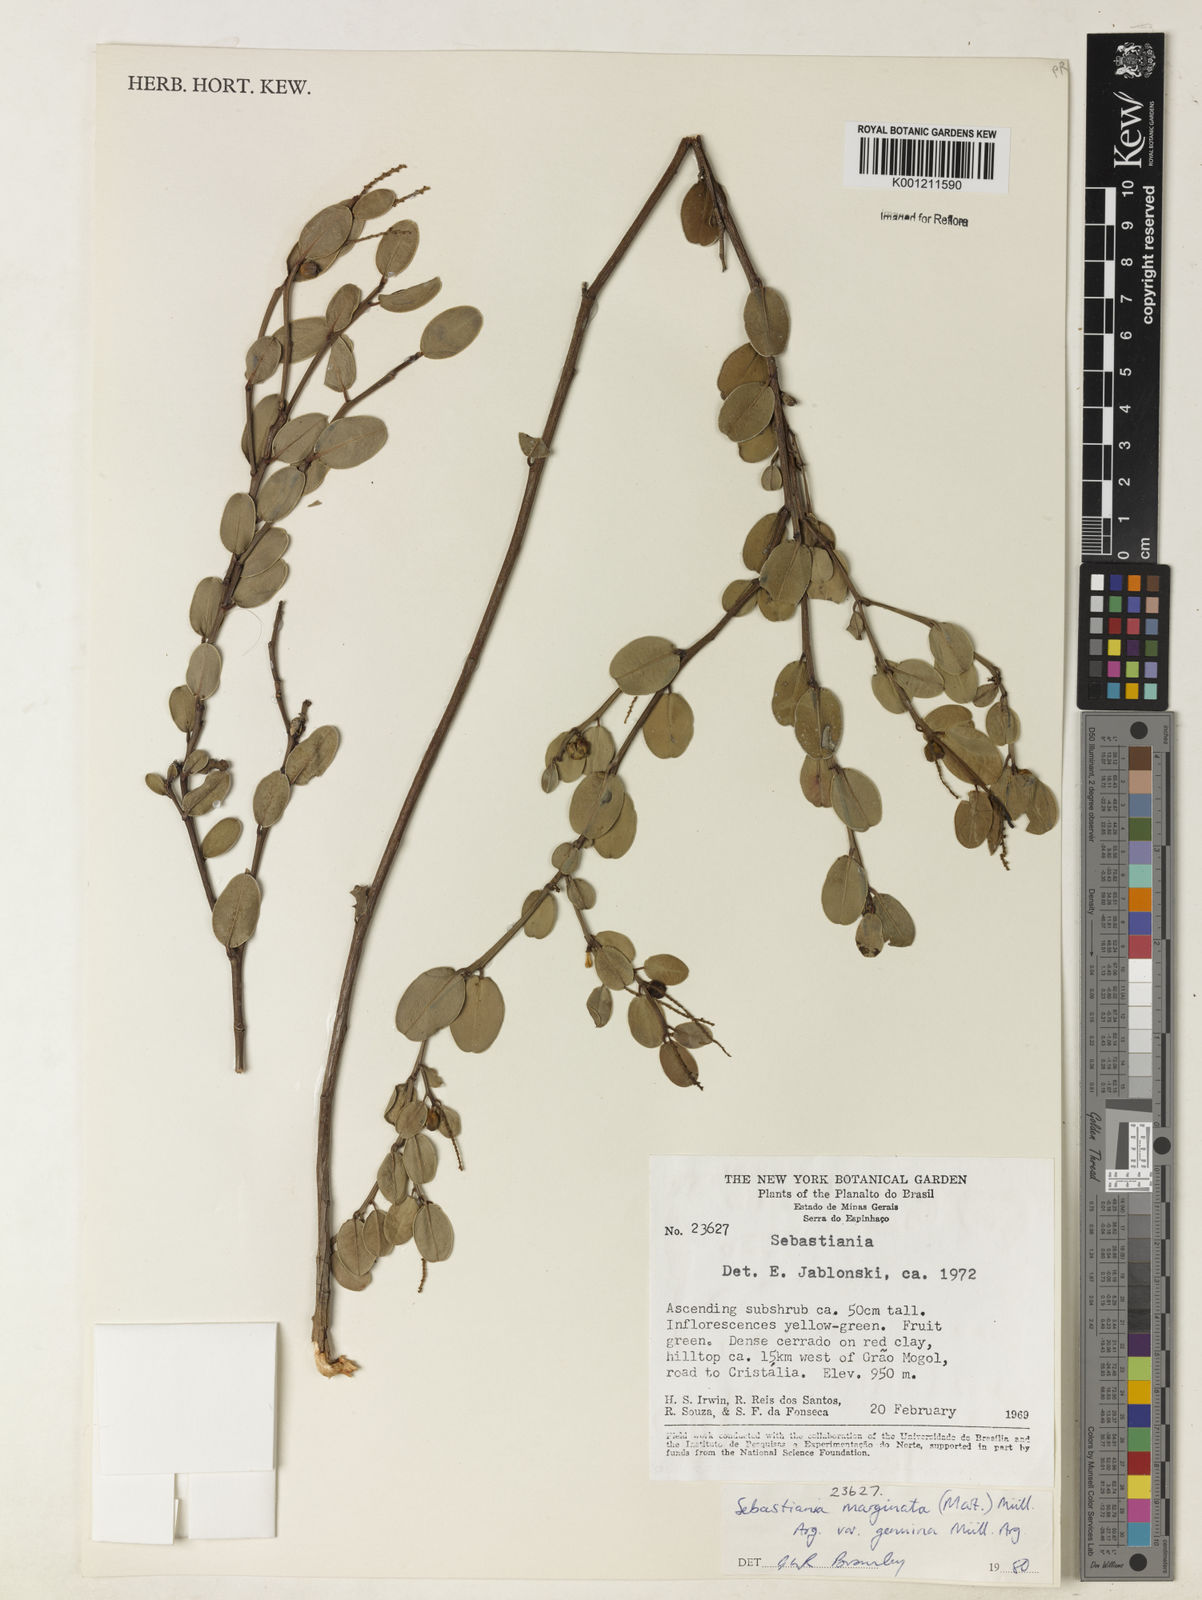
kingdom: Plantae
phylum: Tracheophyta
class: Magnoliopsida
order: Malpighiales
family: Euphorbiaceae
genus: Microstachys
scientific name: Microstachys
